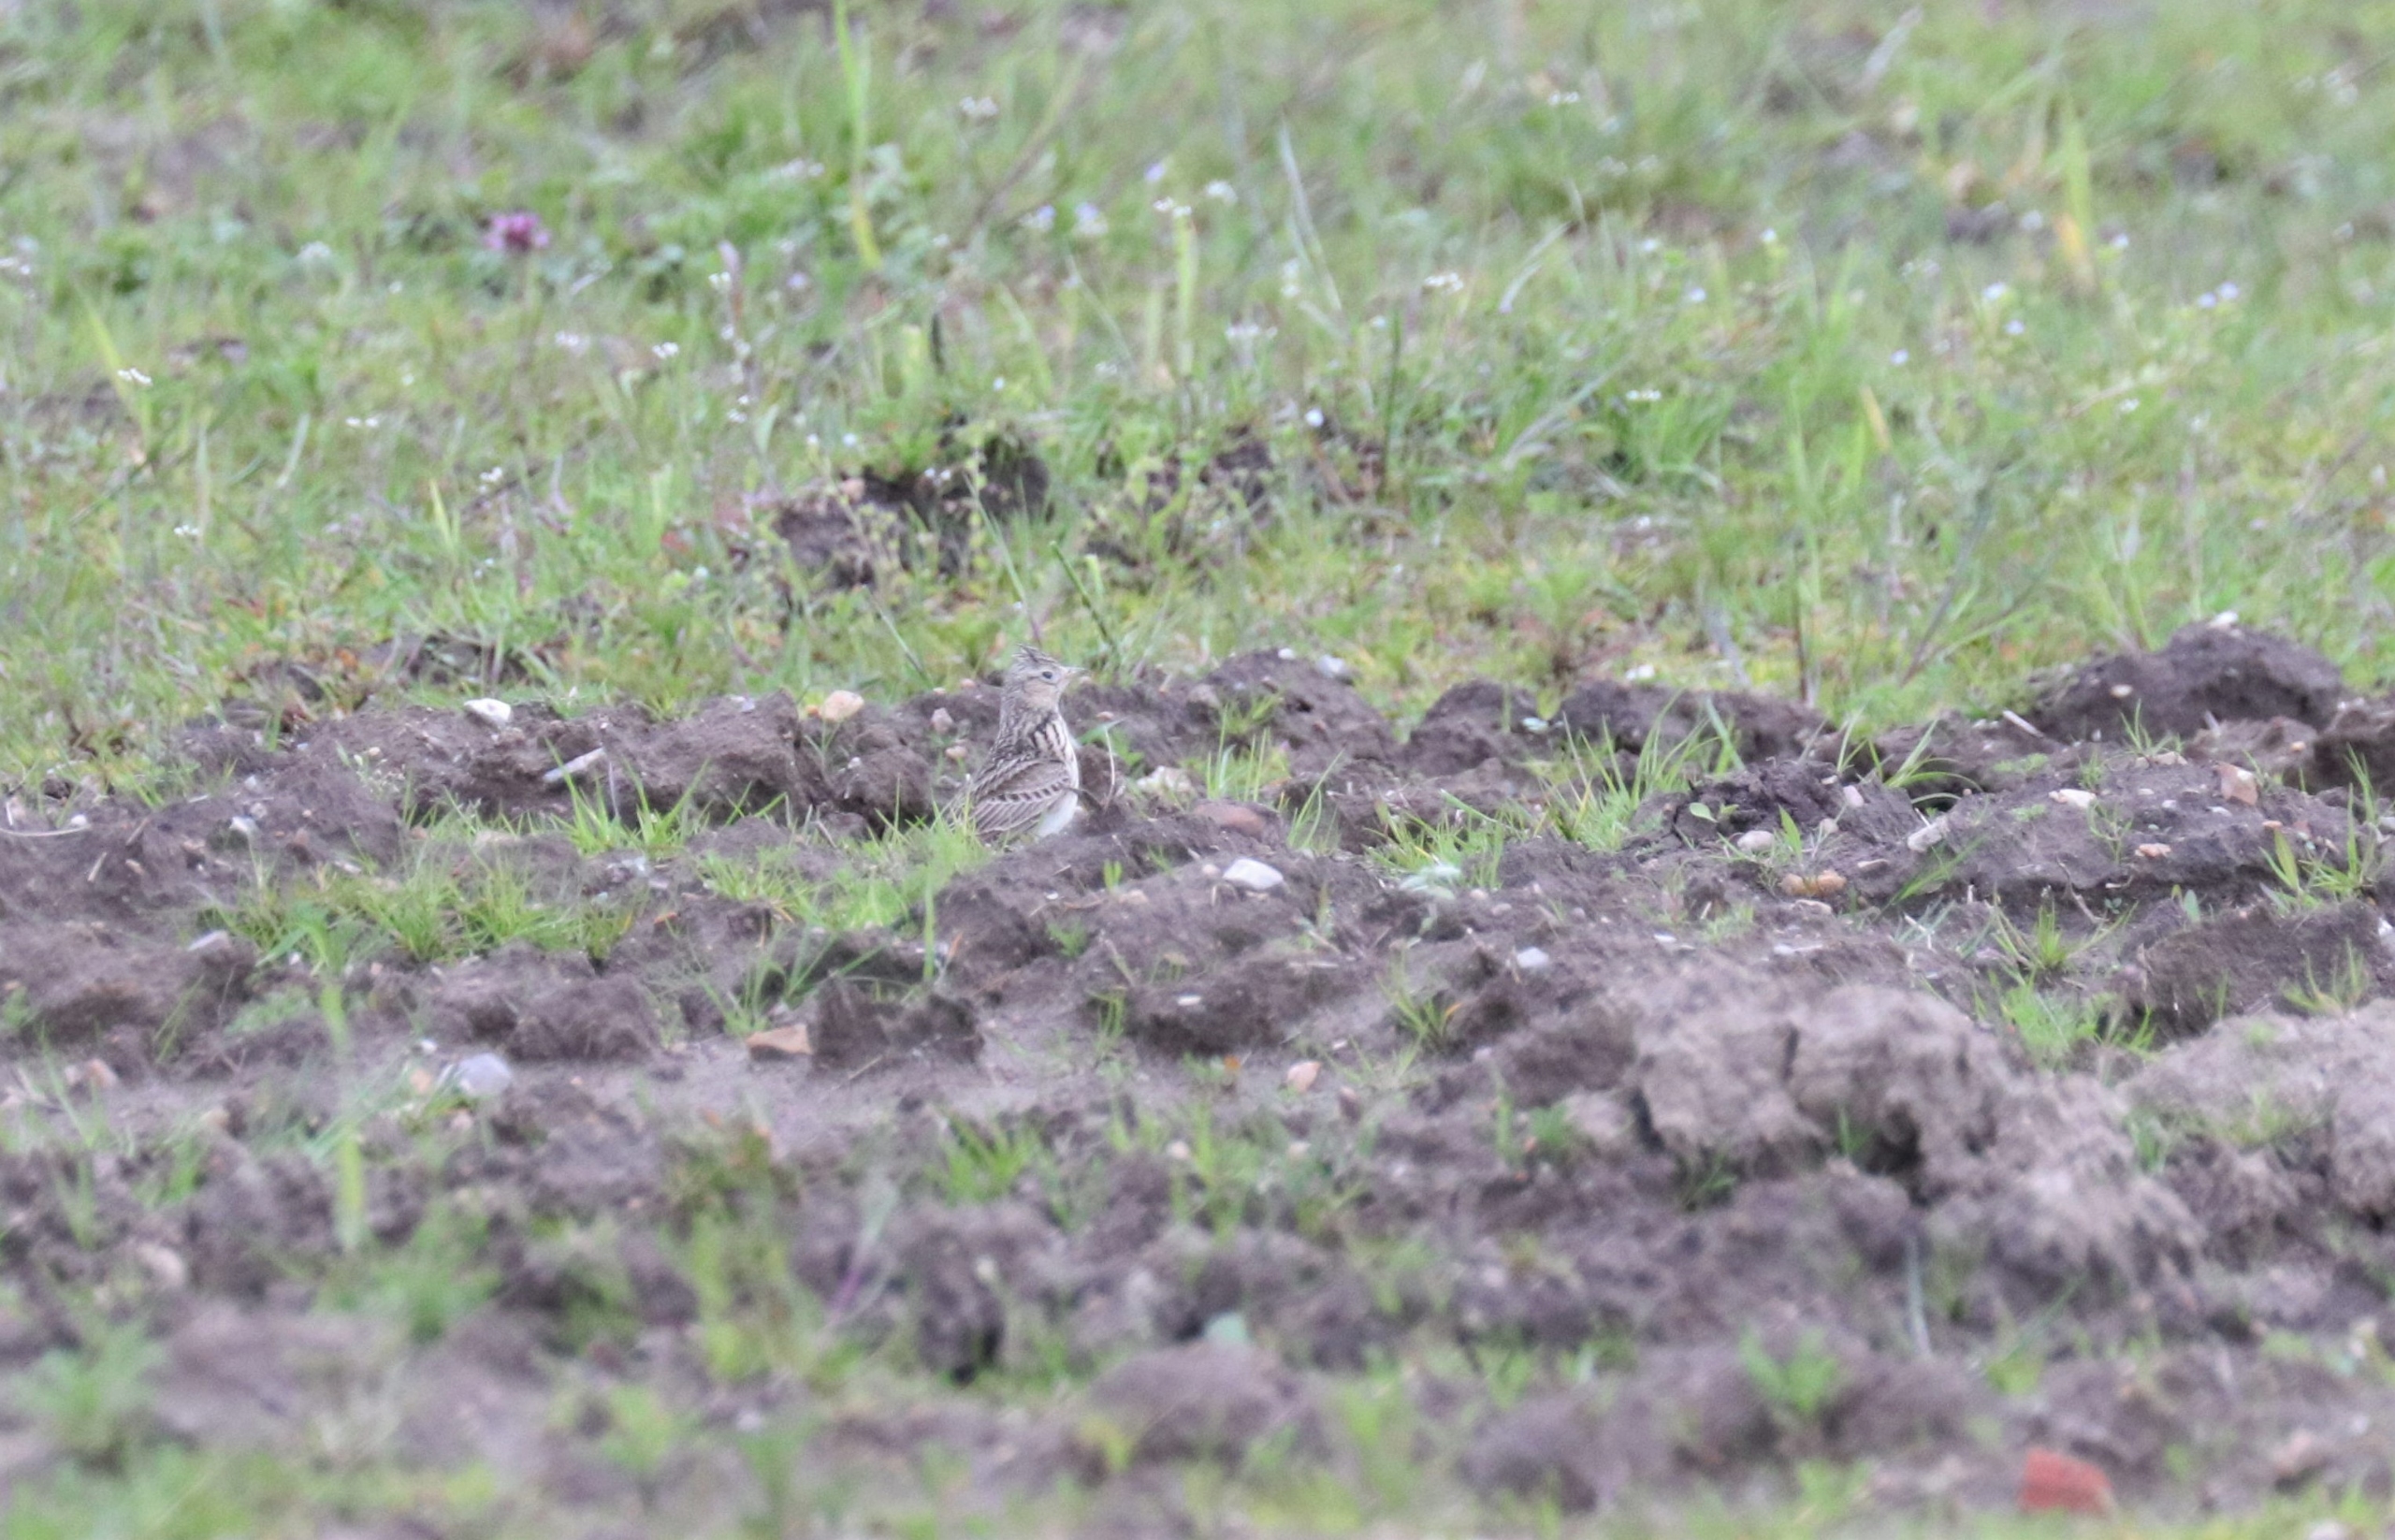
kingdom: Animalia
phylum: Chordata
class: Aves
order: Passeriformes
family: Alaudidae
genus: Alauda
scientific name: Alauda arvensis
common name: Sanglærke
